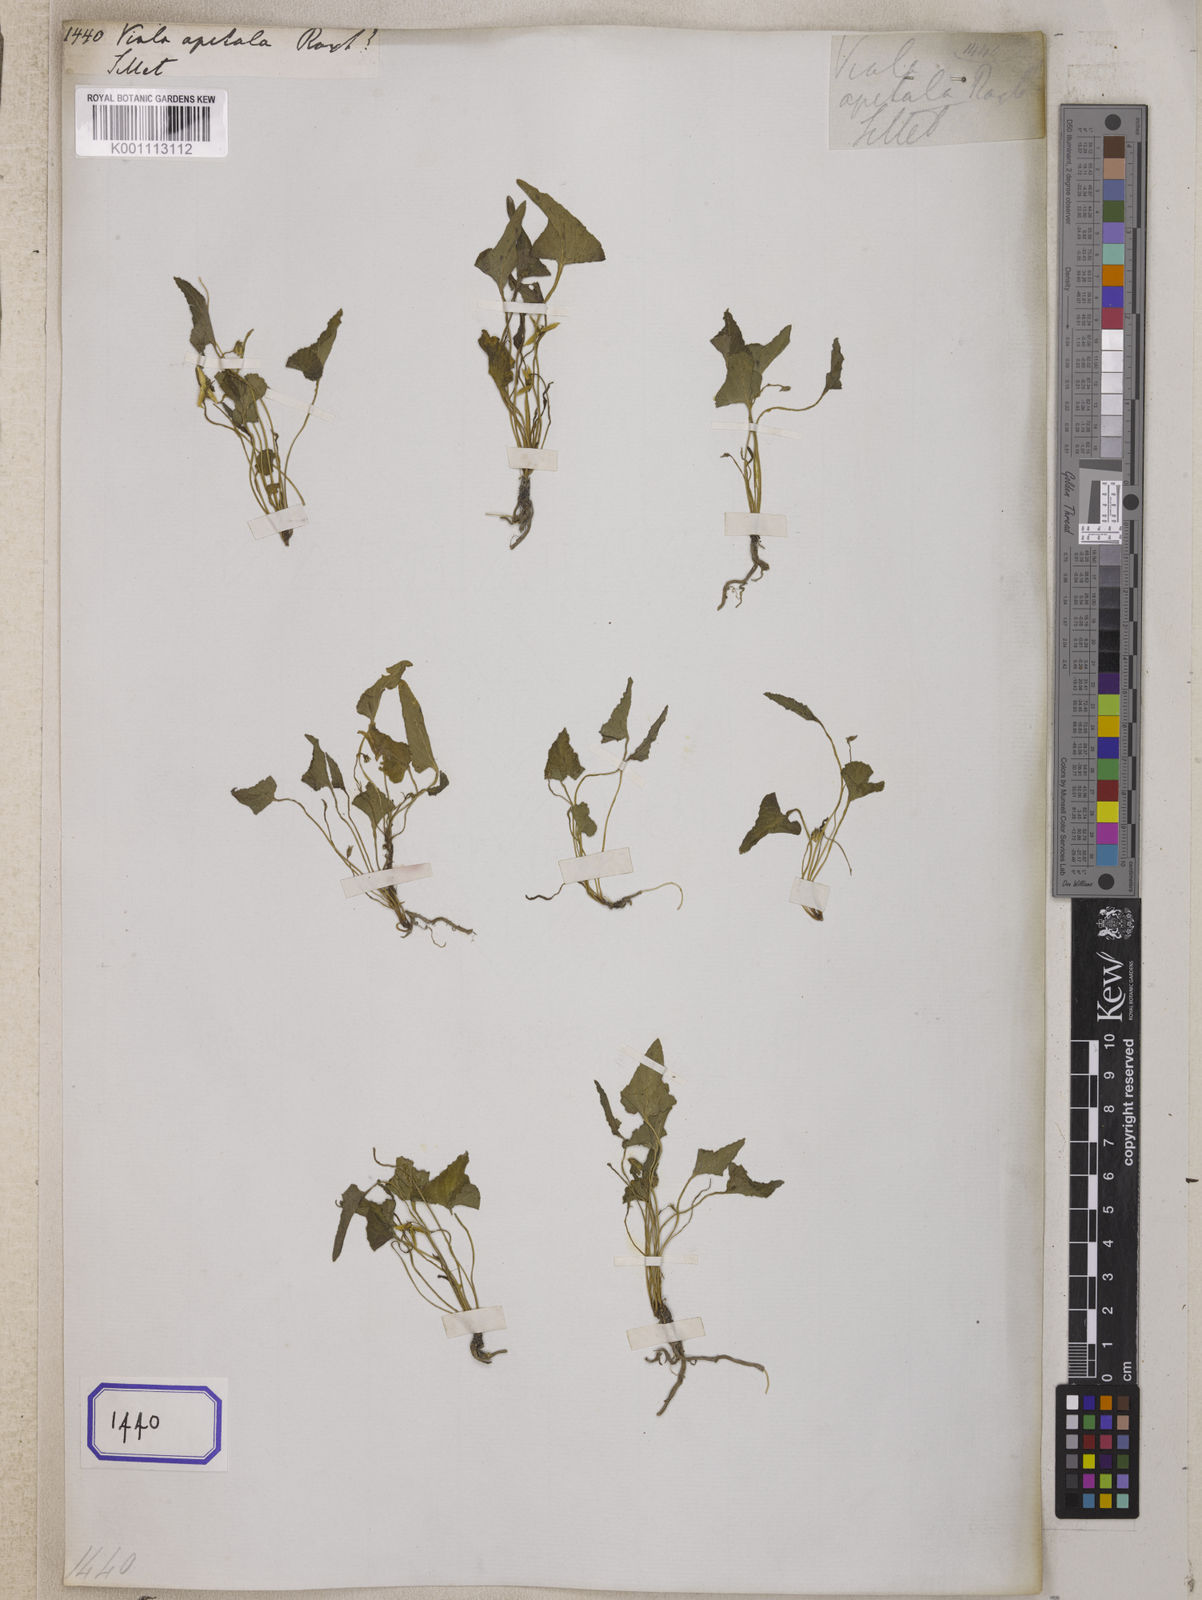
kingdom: Plantae
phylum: Tracheophyta
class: Magnoliopsida
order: Malpighiales
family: Violaceae
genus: Viola
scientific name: Viola inconspicua
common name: Long sepal violet
